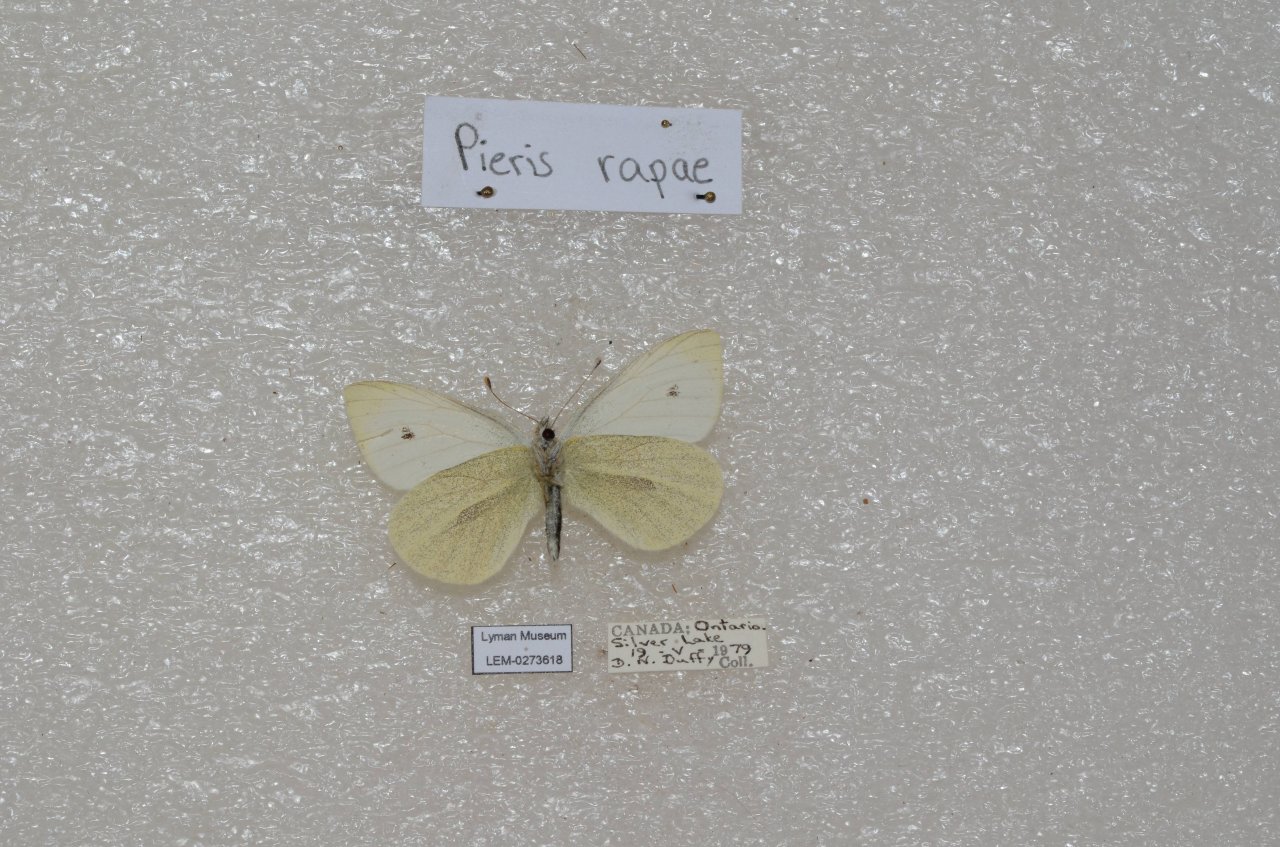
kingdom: Animalia
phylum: Arthropoda
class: Insecta
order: Lepidoptera
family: Pieridae
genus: Pieris
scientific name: Pieris rapae
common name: Cabbage White
